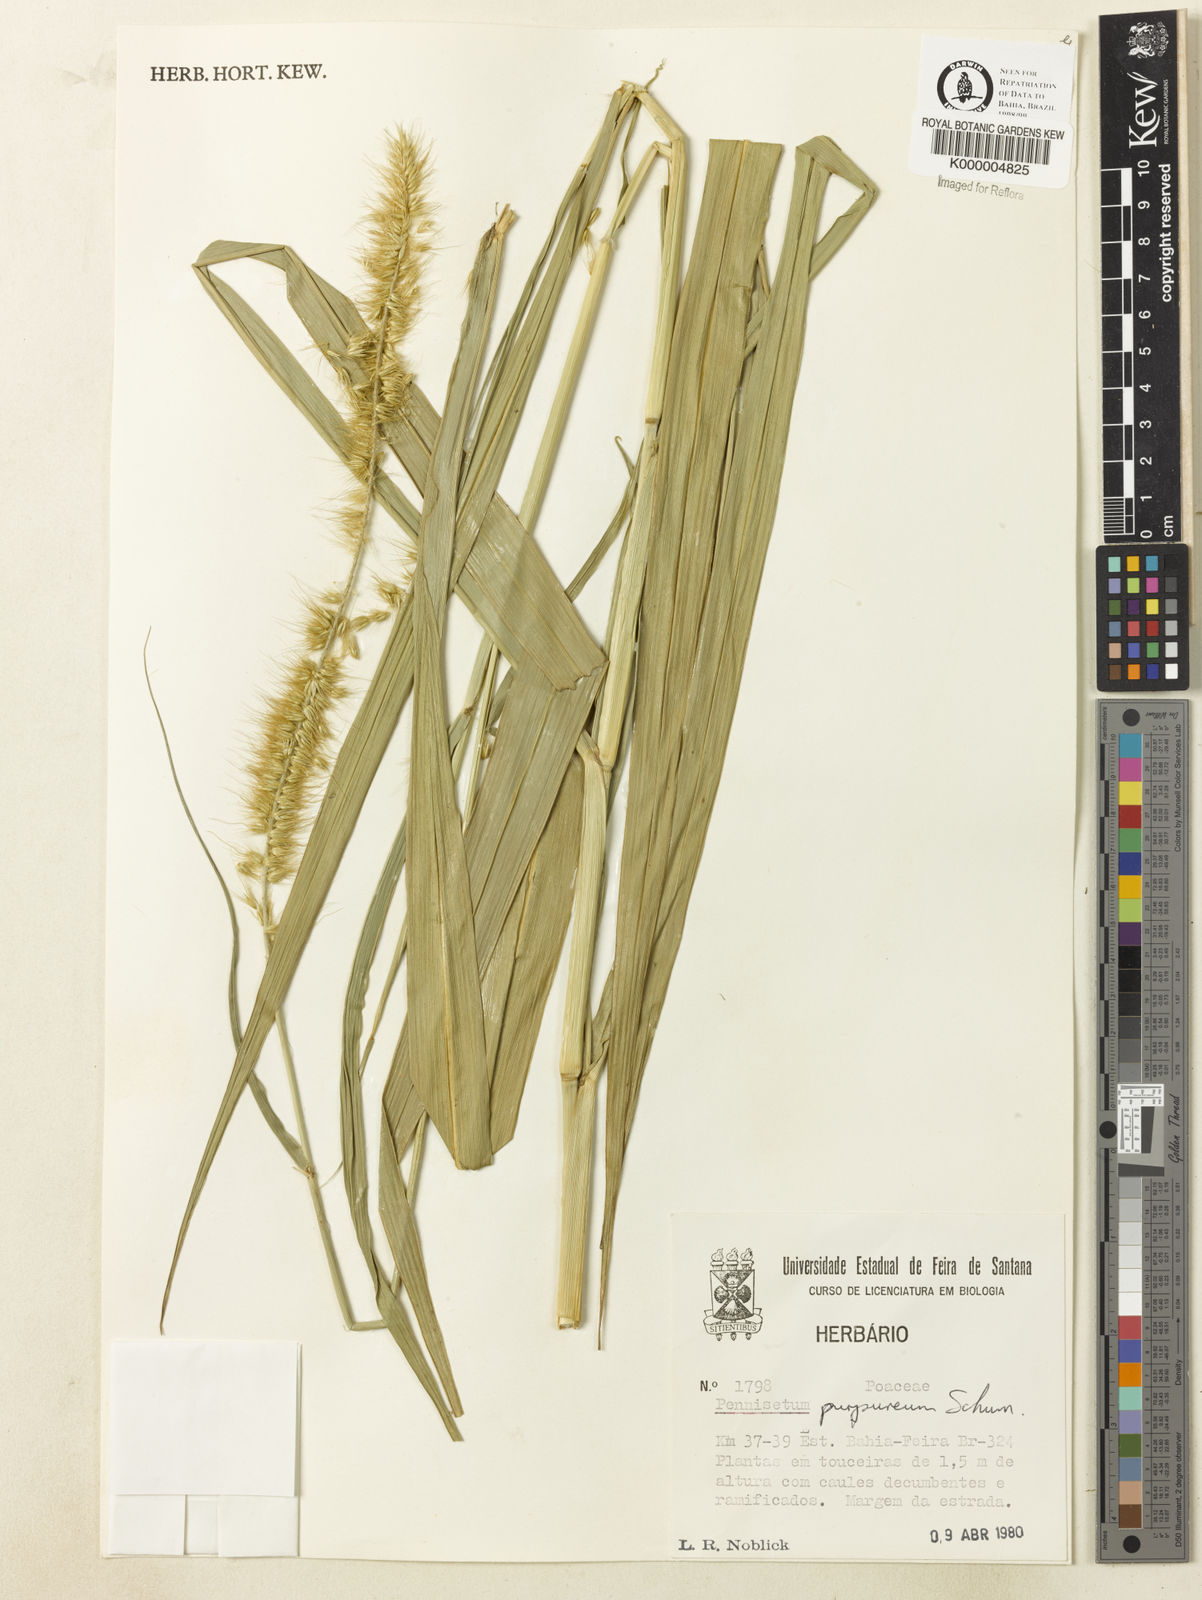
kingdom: Plantae
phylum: Tracheophyta
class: Liliopsida
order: Poales
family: Poaceae
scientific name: Poaceae
